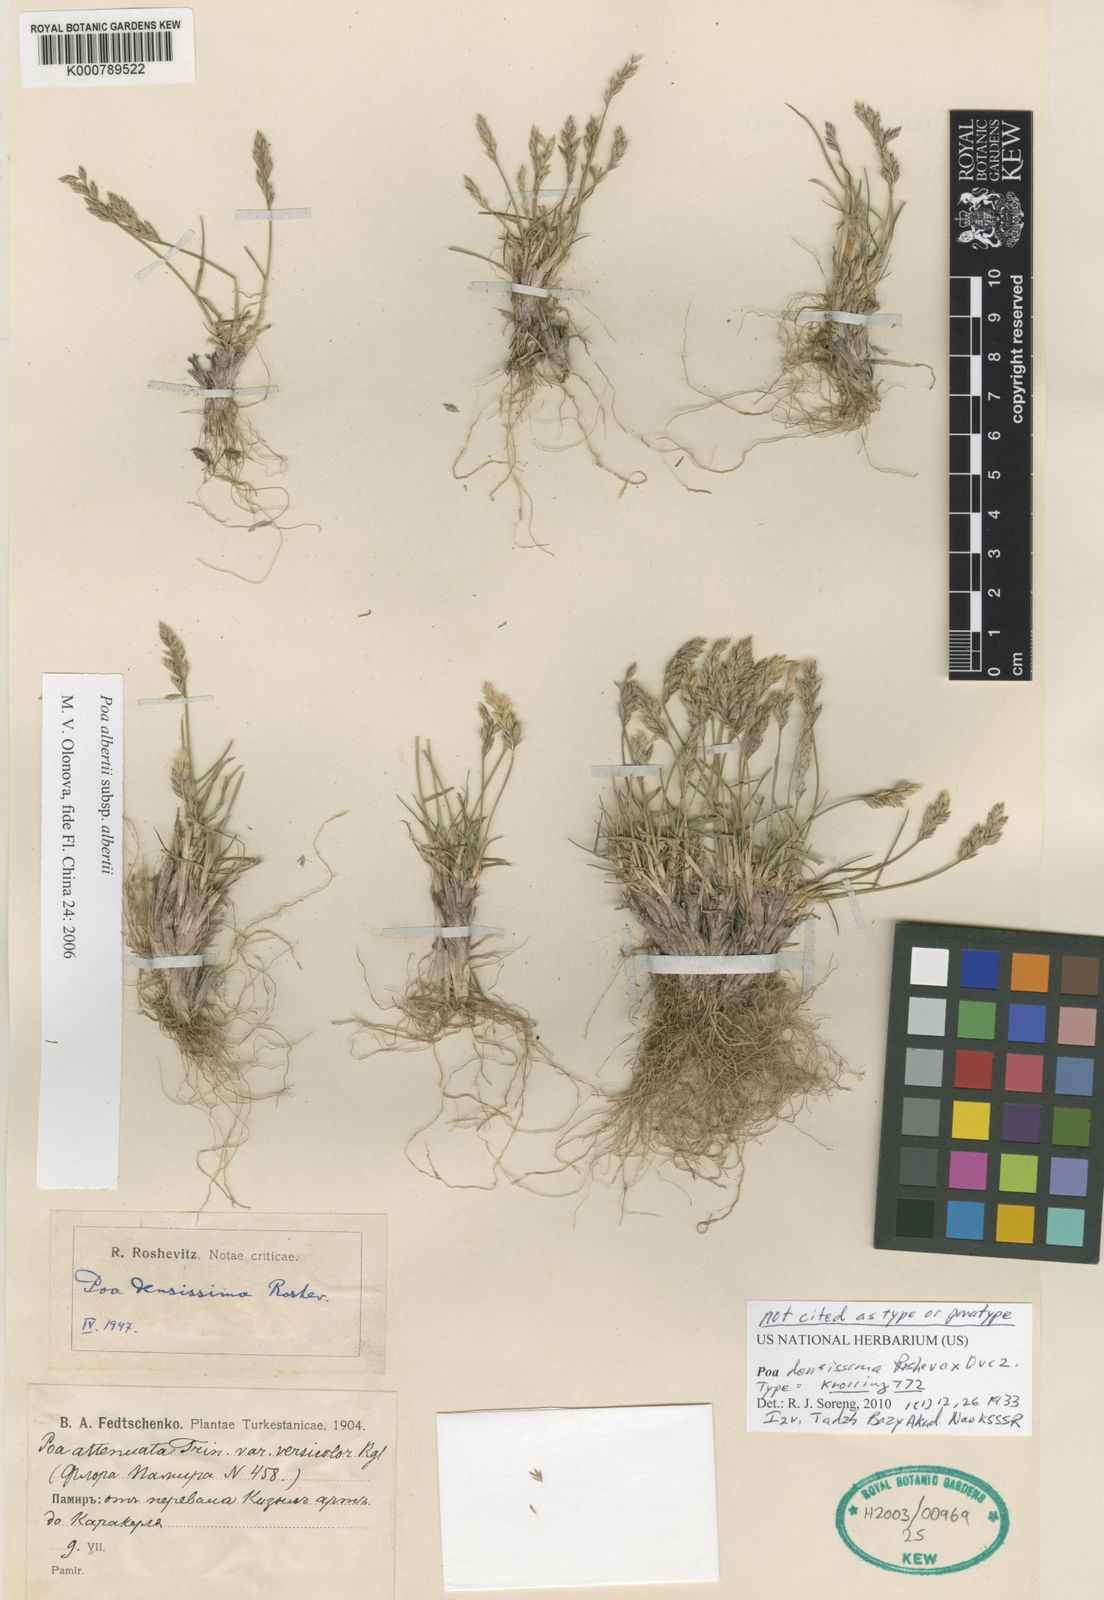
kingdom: Plantae
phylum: Tracheophyta
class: Liliopsida
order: Poales
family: Poaceae
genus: Poa
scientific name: Poa glauca
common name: Glaucous bluegrass
